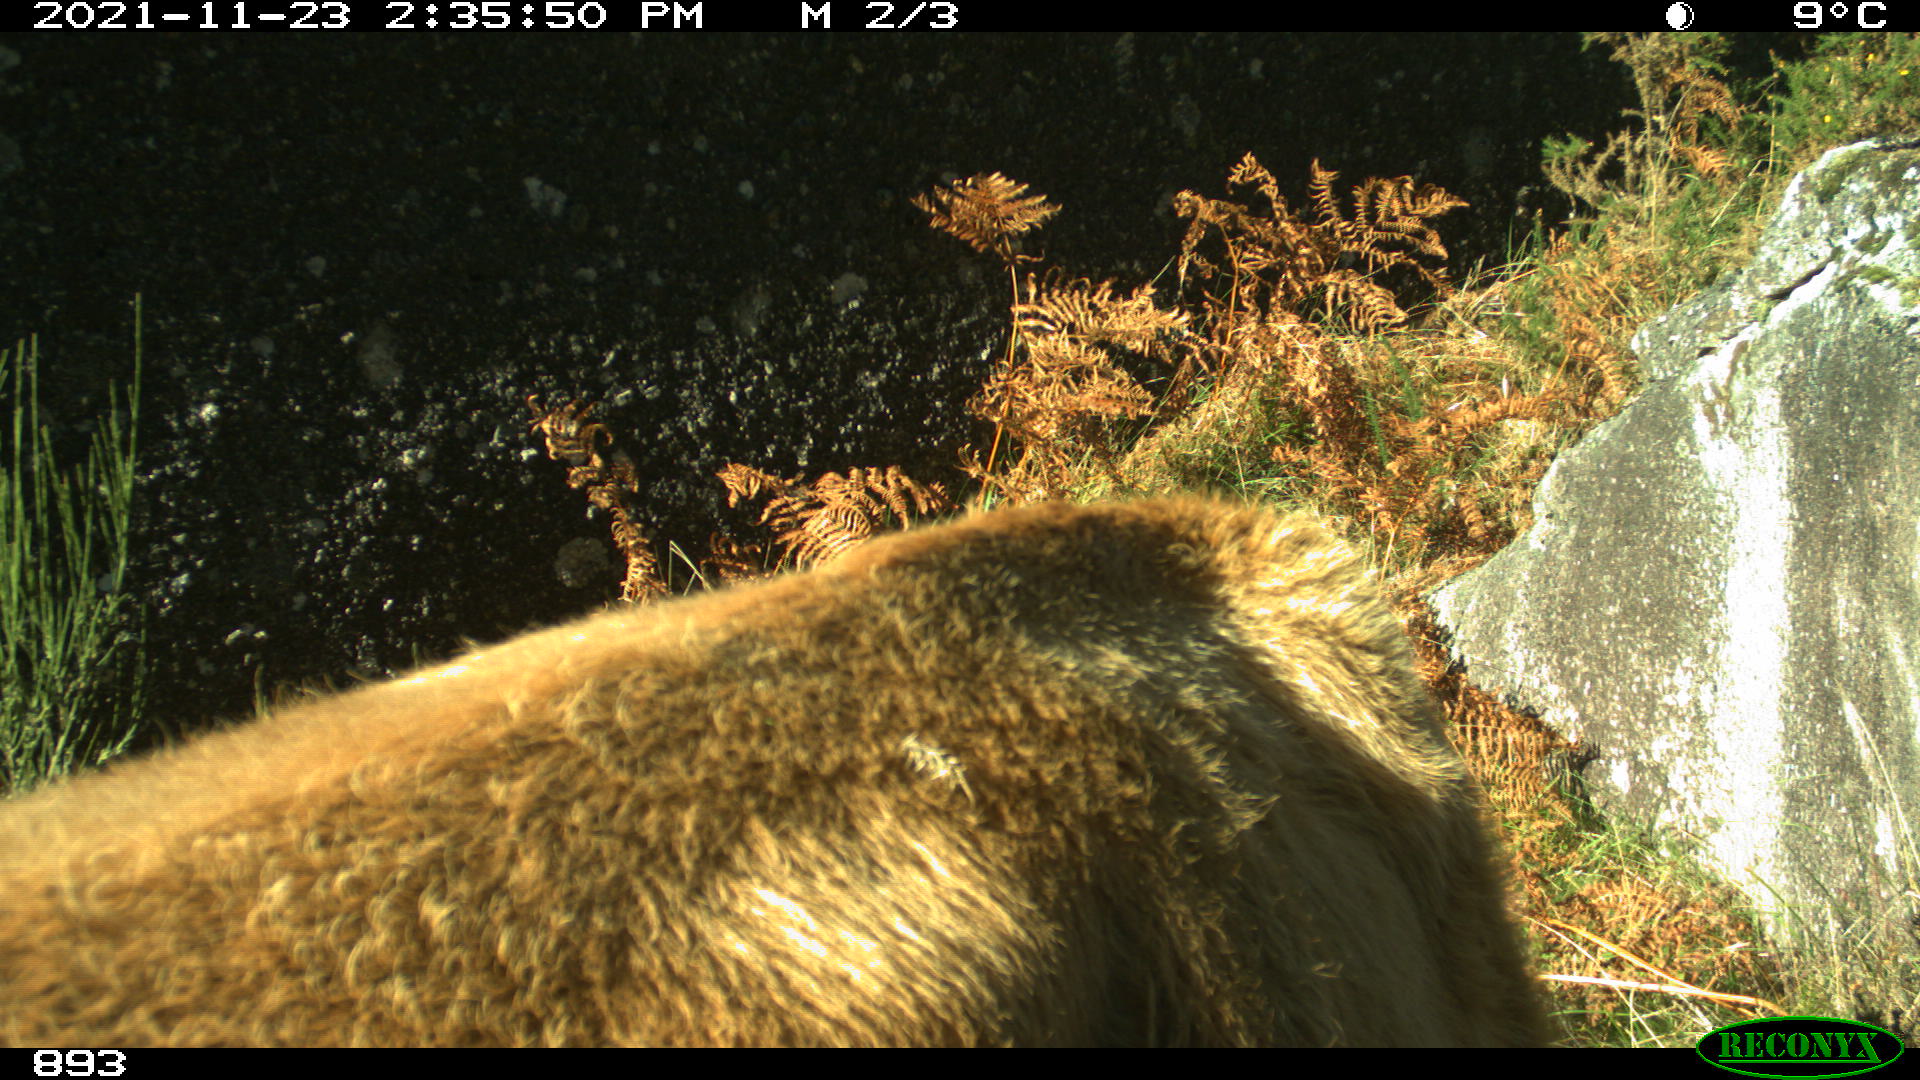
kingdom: Animalia
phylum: Chordata
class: Mammalia
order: Artiodactyla
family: Bovidae
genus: Bos
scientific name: Bos taurus
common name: Domesticated cattle
